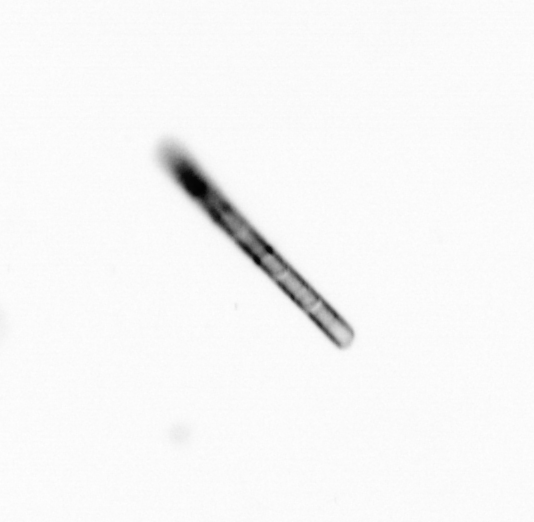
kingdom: Chromista
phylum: Ochrophyta
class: Bacillariophyceae
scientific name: Bacillariophyceae
